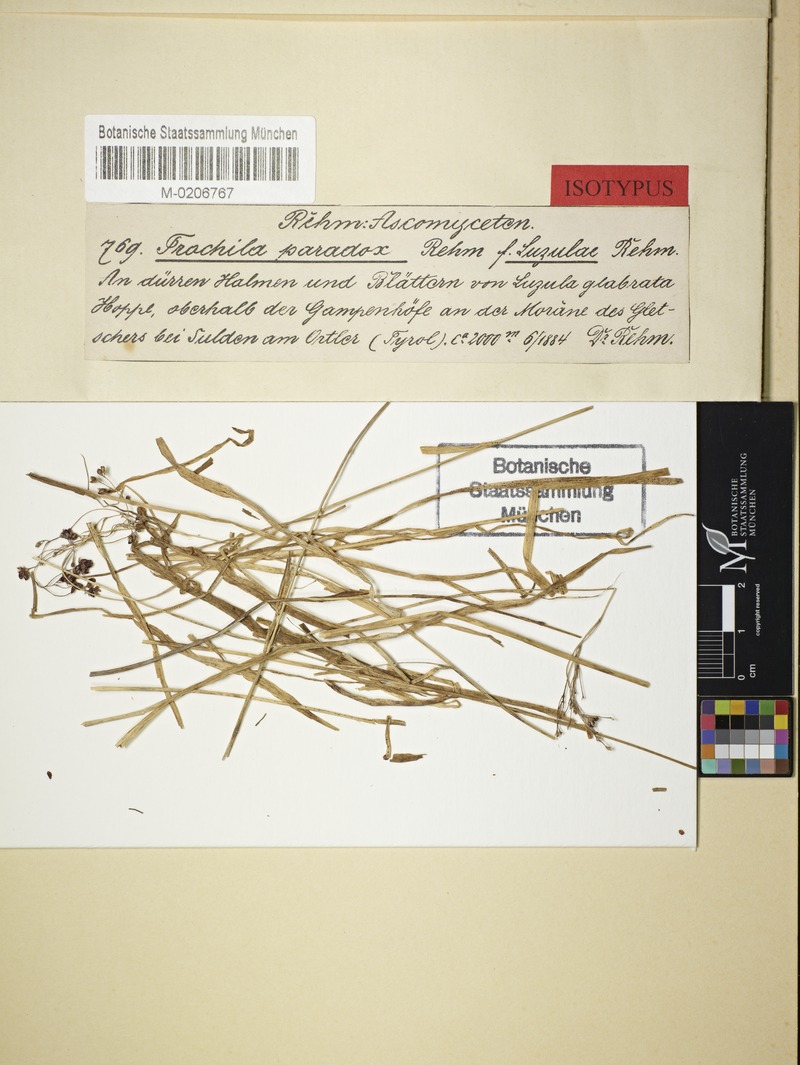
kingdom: Fungi
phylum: Ascomycota
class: Leotiomycetes
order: Helotiales
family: Drepanopezizaceae
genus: Drepanopeziza
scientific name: Drepanopeziza paradoxoides
